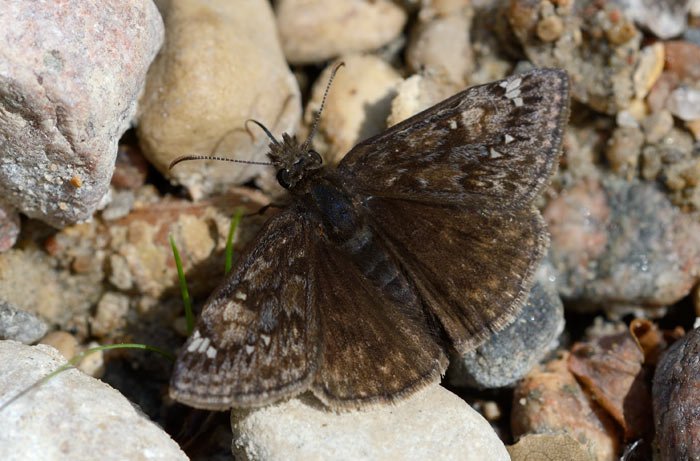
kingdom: Animalia
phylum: Arthropoda
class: Insecta
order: Lepidoptera
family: Hesperiidae
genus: Gesta
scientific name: Gesta
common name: Juvenal's Duskywing
